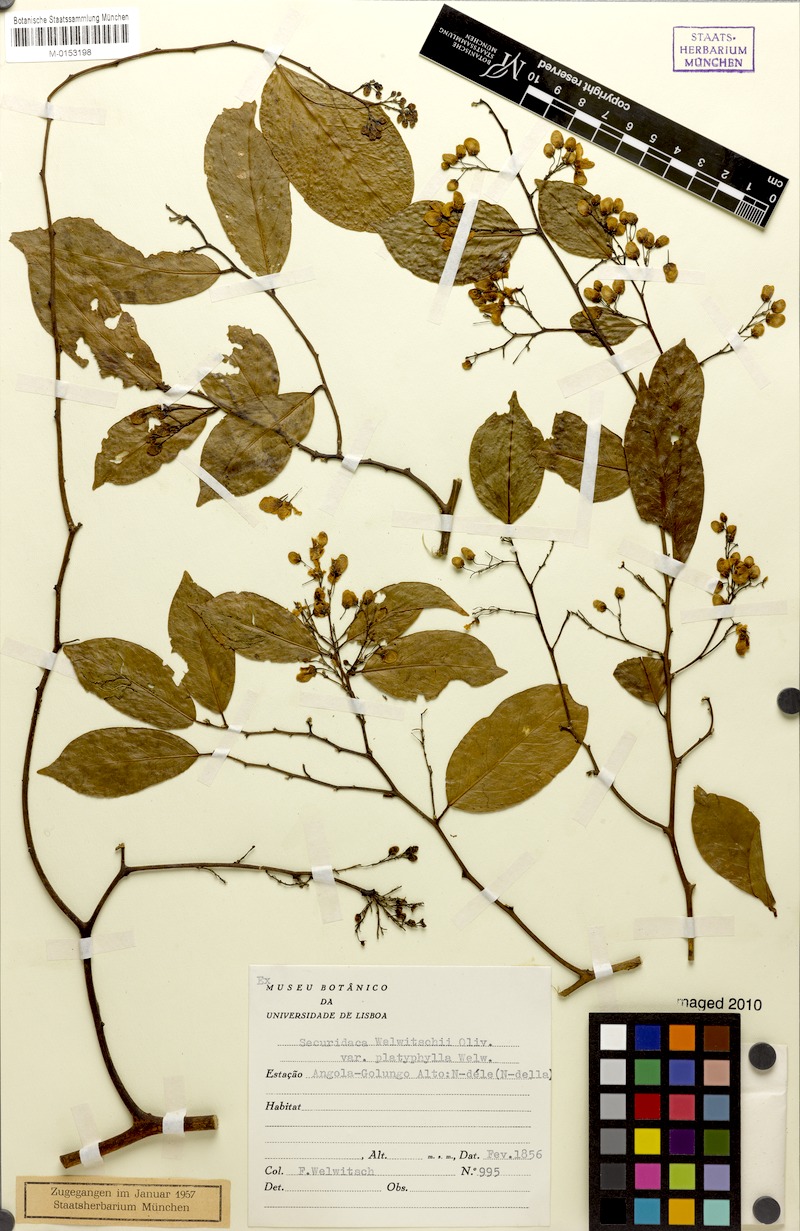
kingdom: Plantae
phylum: Tracheophyta
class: Magnoliopsida
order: Fabales
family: Polygalaceae
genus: Securidaca
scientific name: Securidaca welwitschii
